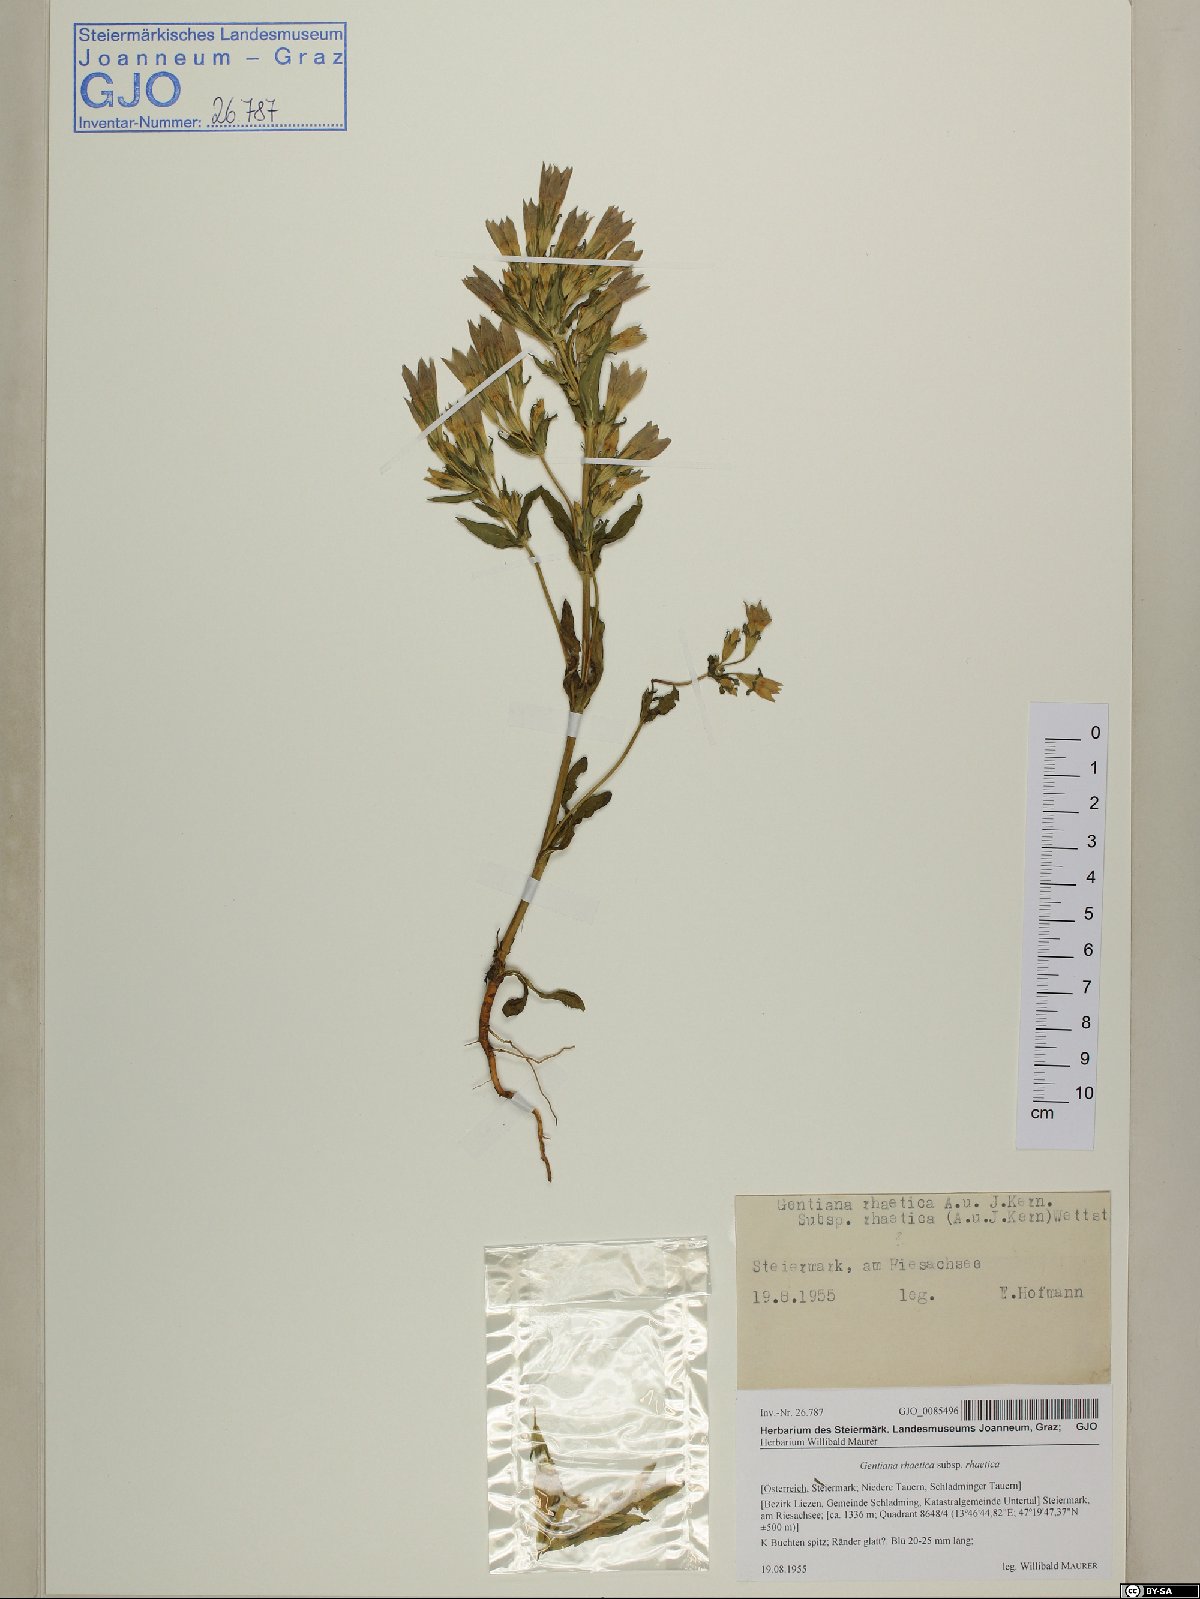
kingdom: Plantae
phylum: Tracheophyta
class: Magnoliopsida
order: Gentianales
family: Gentianaceae
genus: Gentianella
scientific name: Gentianella rhaetica
